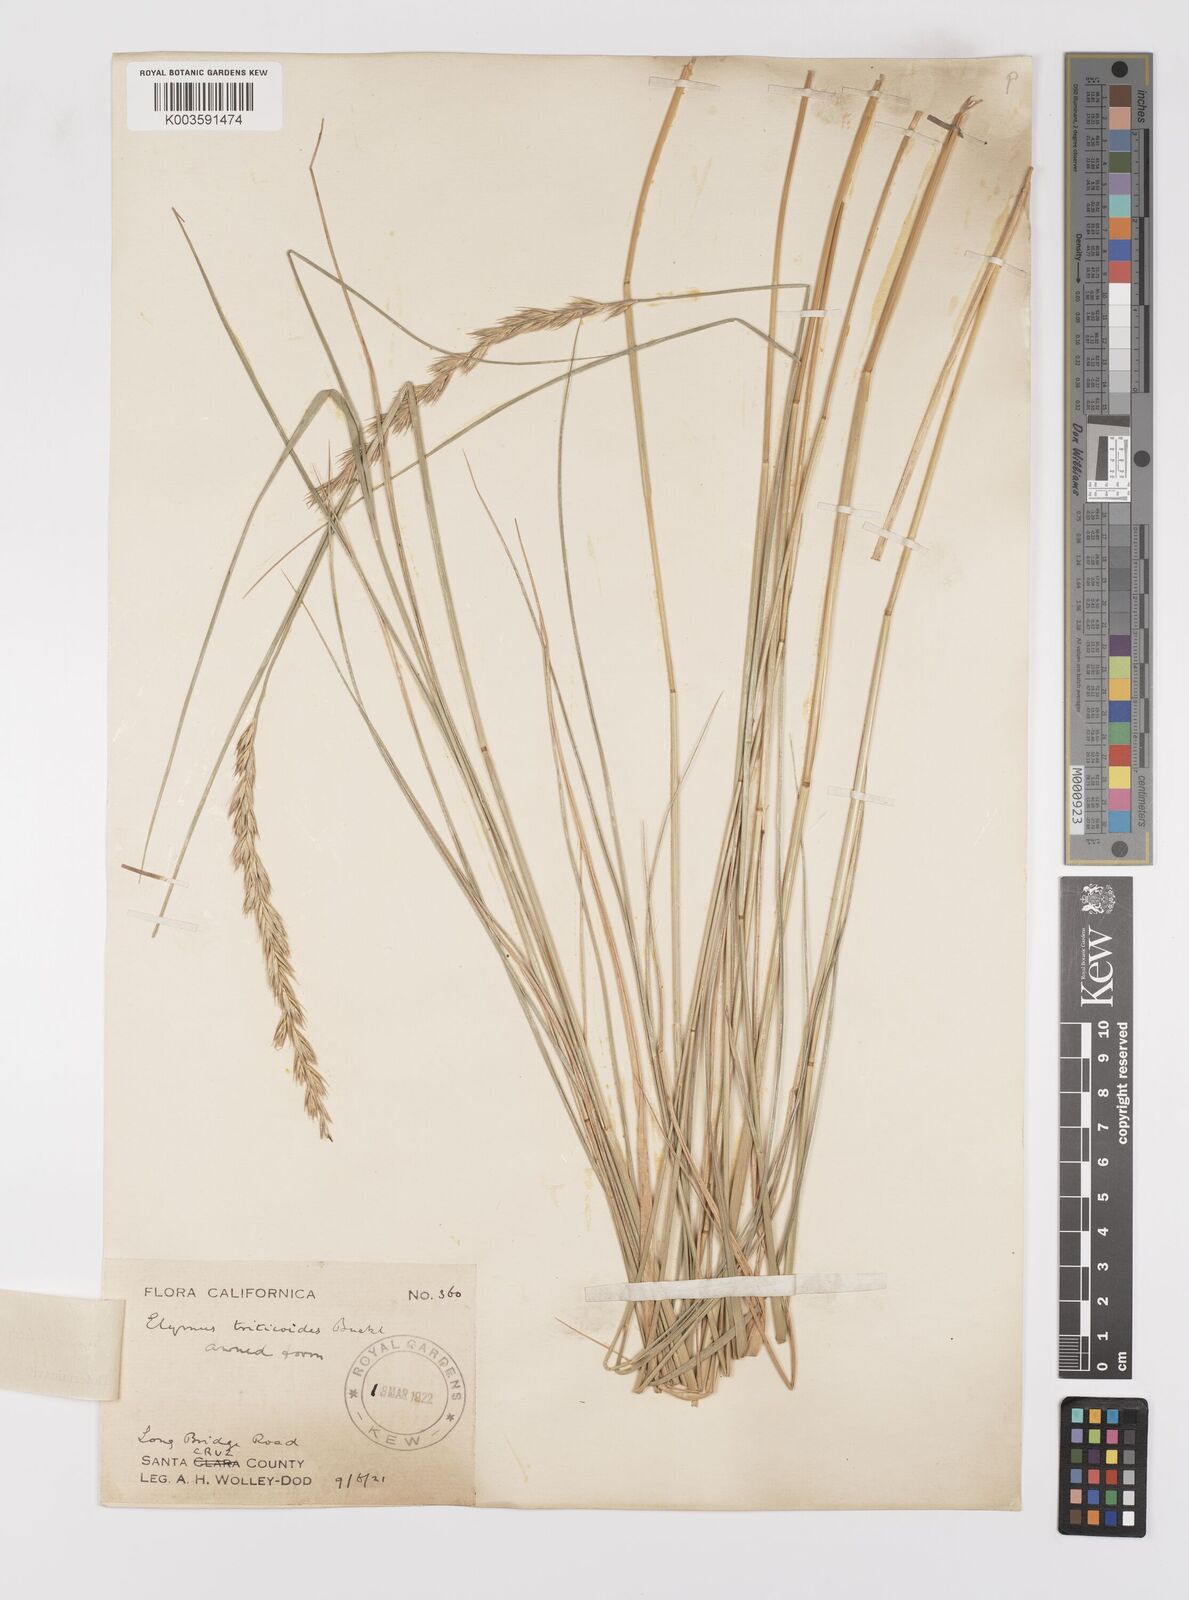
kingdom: Plantae
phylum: Tracheophyta
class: Liliopsida
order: Poales
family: Poaceae
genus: Leymus
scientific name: Leymus triticoides
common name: Beardless wild rye
